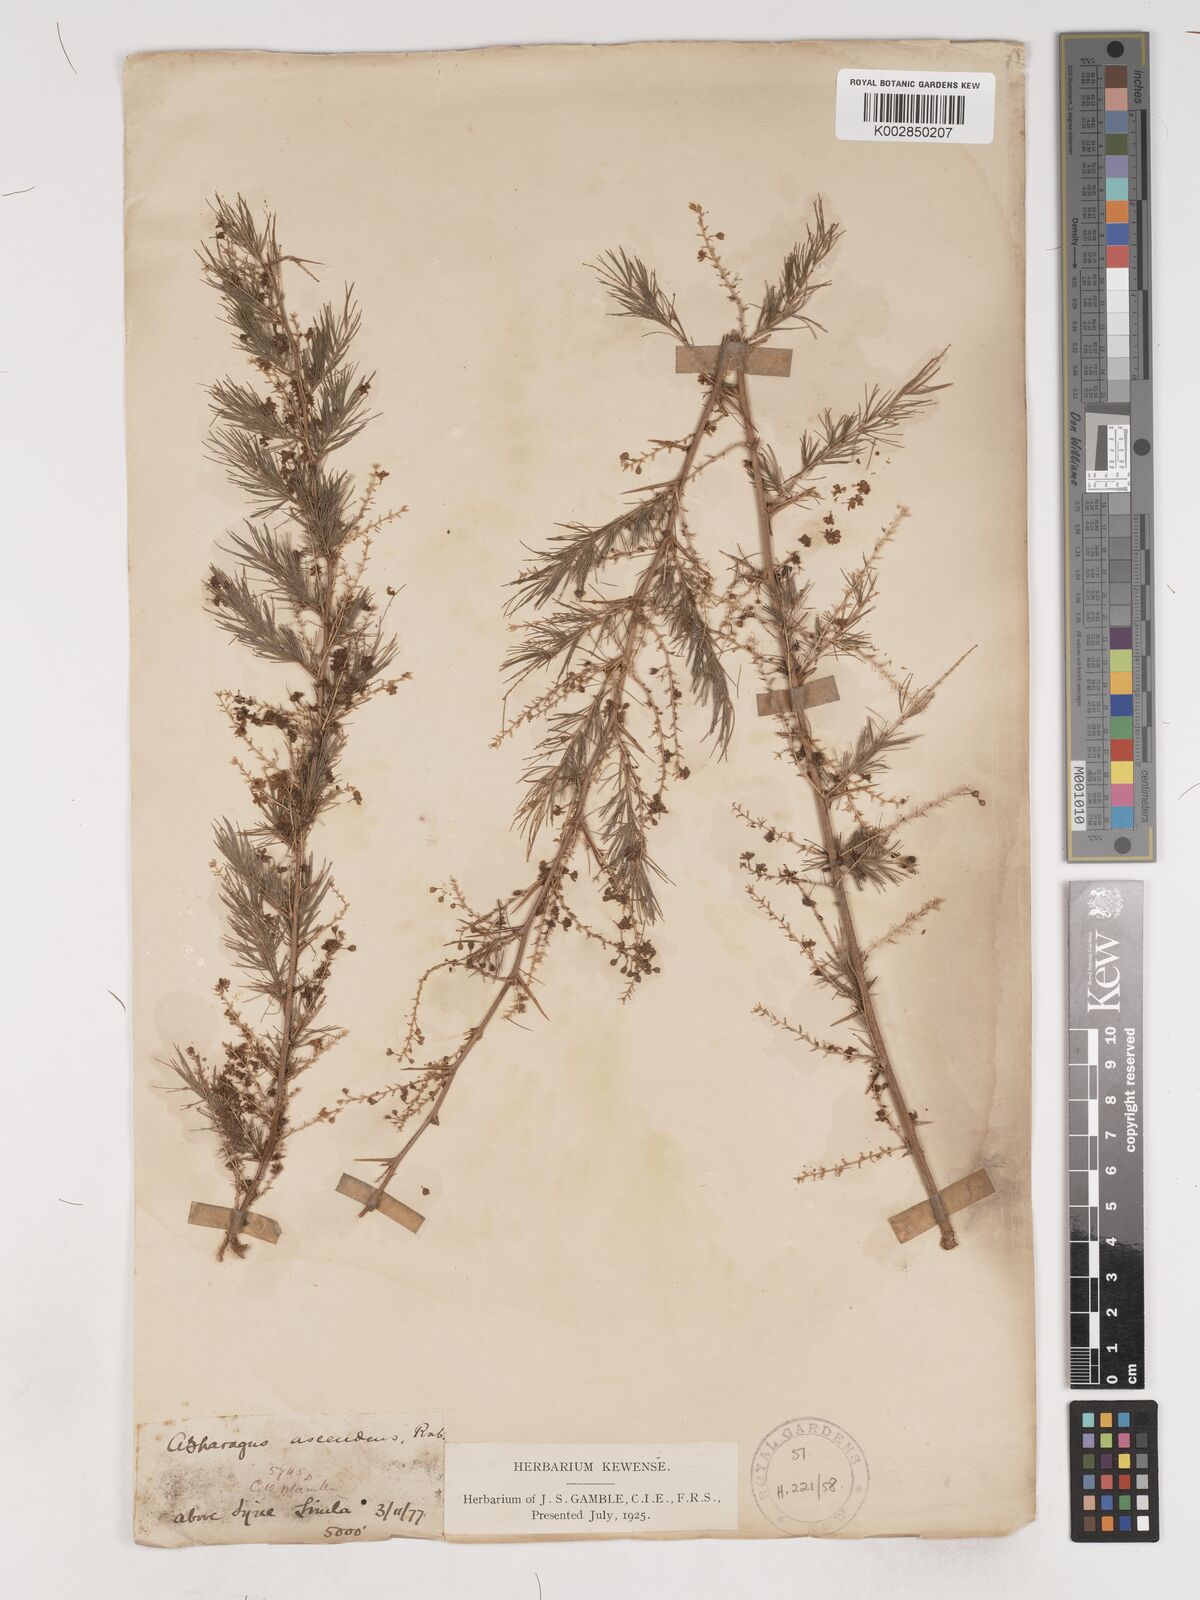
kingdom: Plantae
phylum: Tracheophyta
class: Liliopsida
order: Asparagales
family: Asparagaceae
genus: Asparagus
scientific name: Asparagus adscendens
